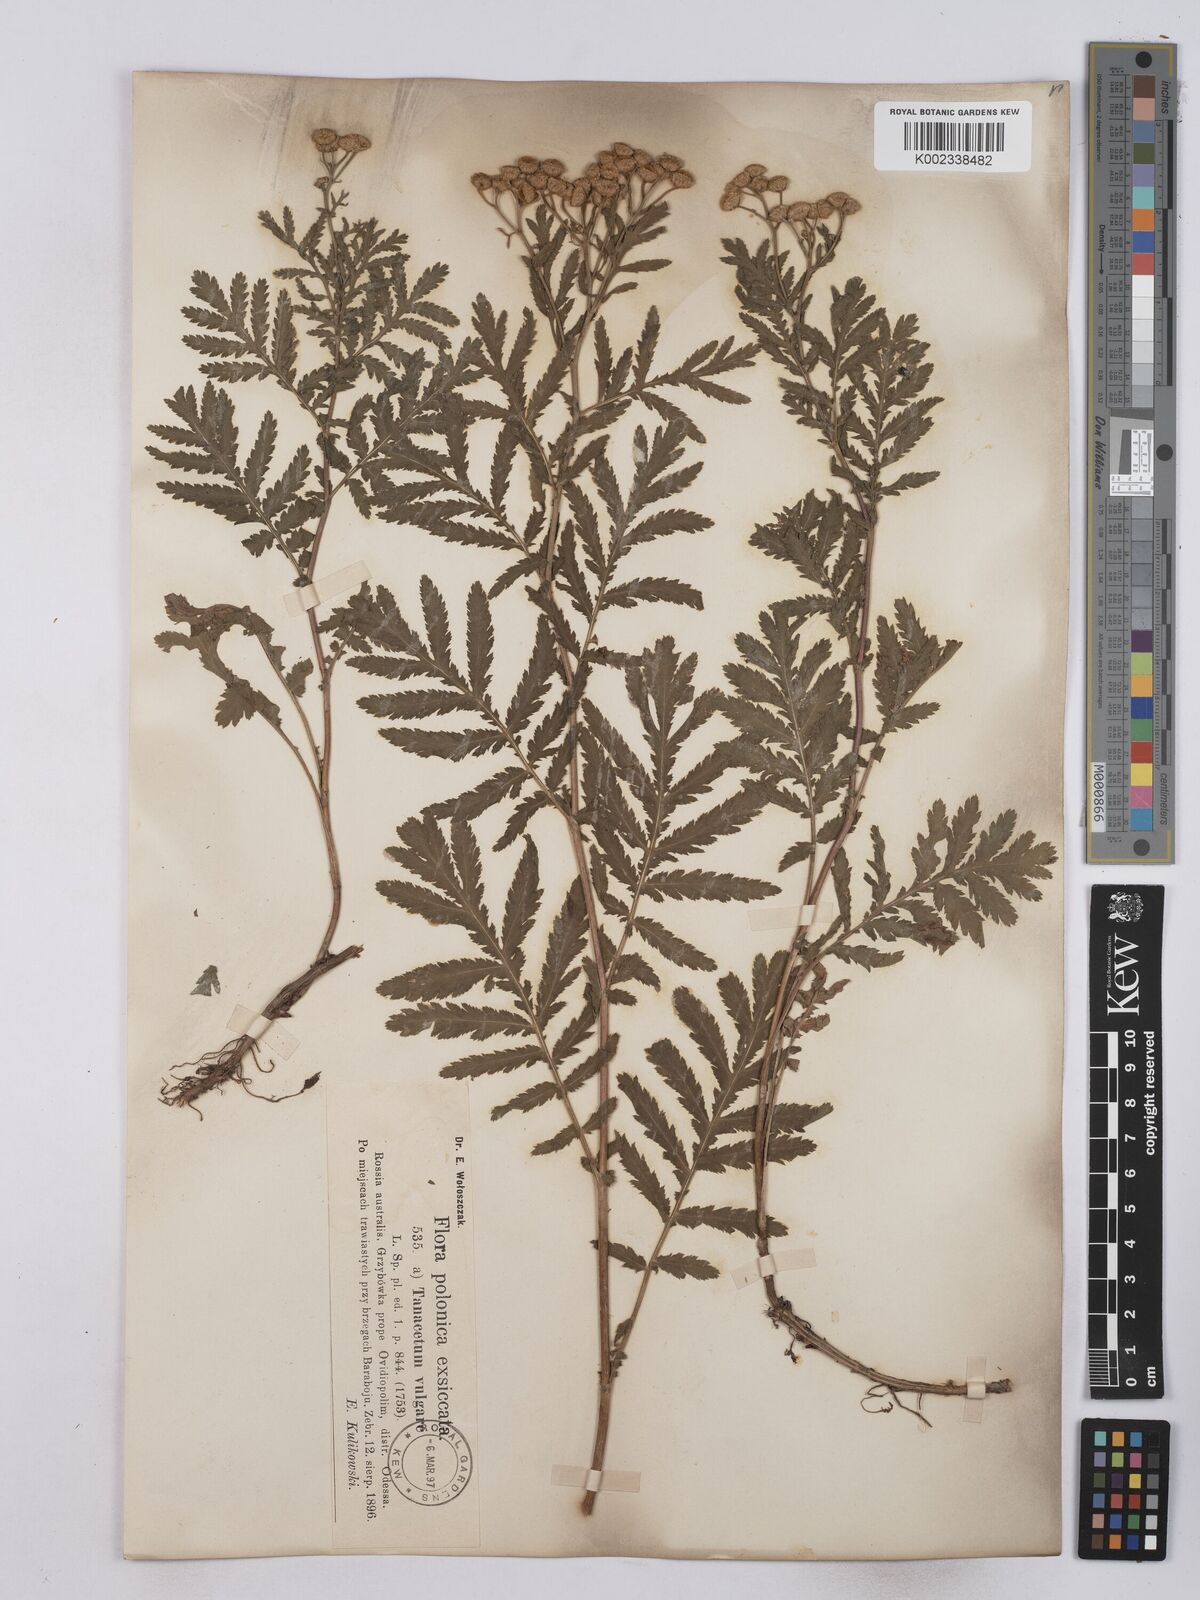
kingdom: Plantae
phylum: Tracheophyta
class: Magnoliopsida
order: Asterales
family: Asteraceae
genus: Tanacetum
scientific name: Tanacetum vulgare
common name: Common tansy
